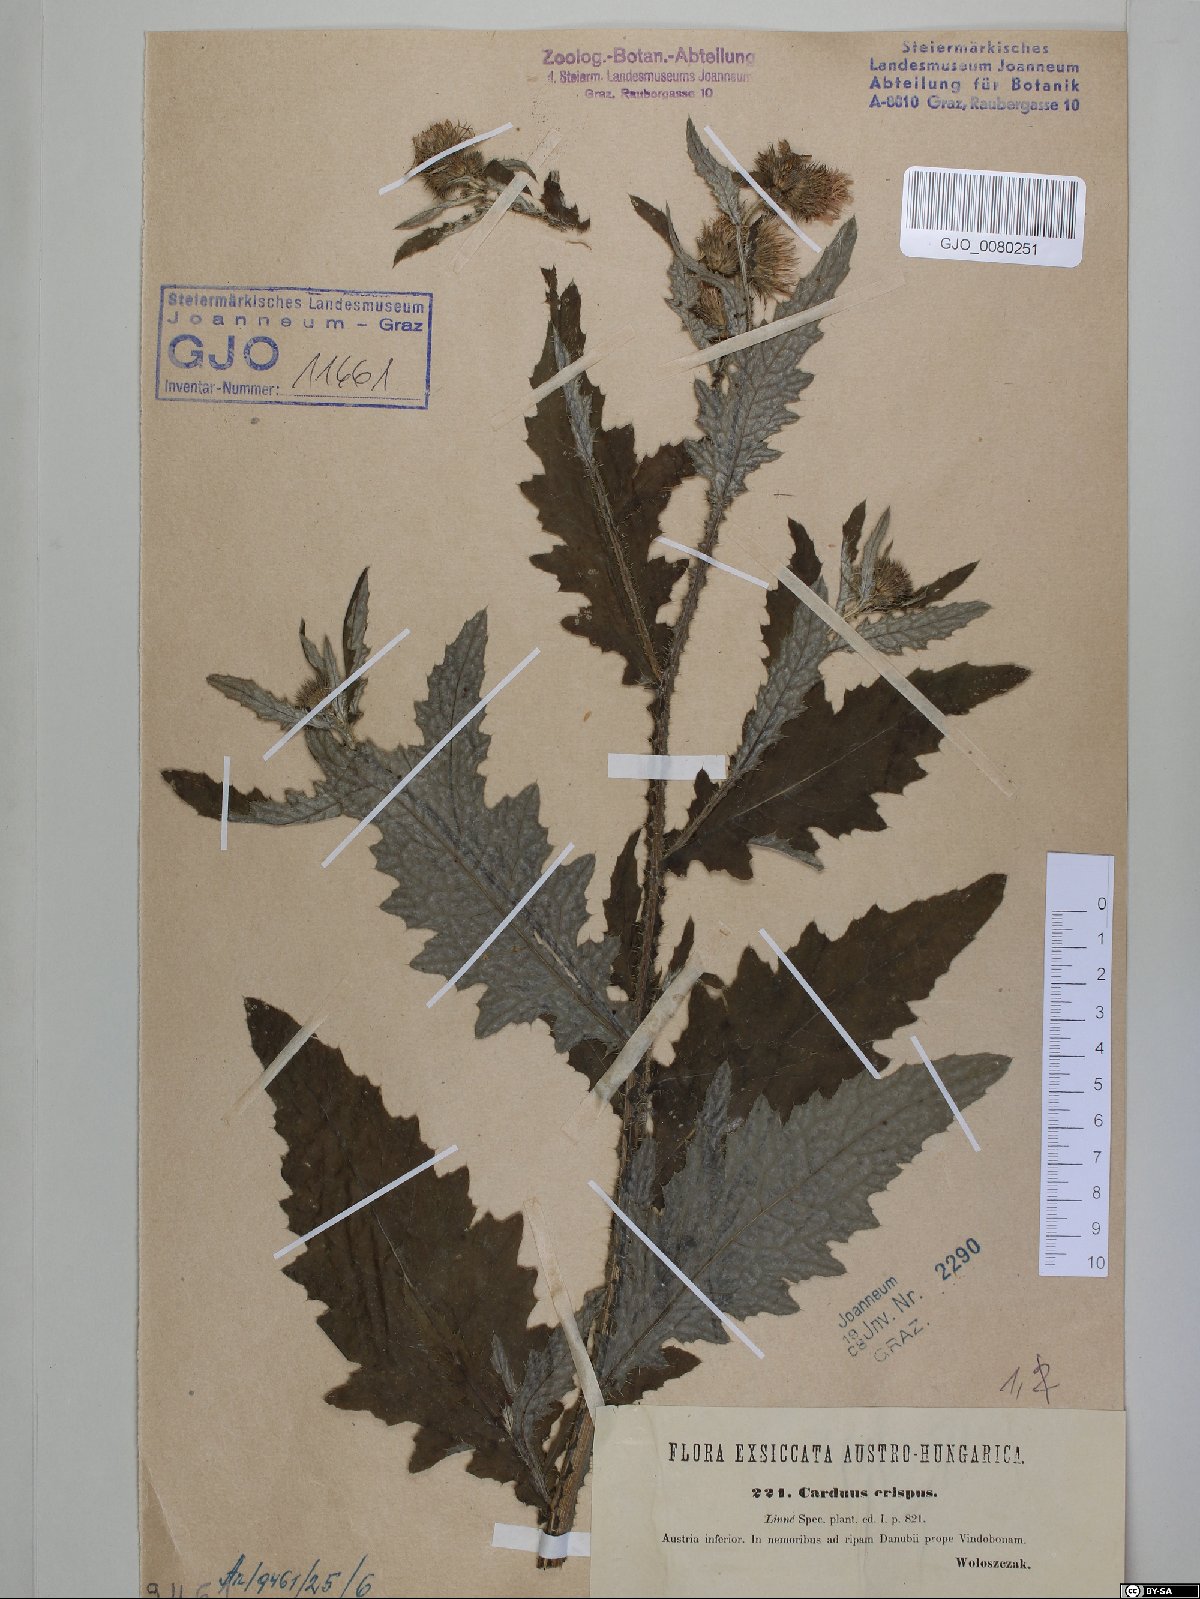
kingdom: Plantae
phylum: Tracheophyta
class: Magnoliopsida
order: Asterales
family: Asteraceae
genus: Carduus
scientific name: Carduus crispus
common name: Welted thistle
